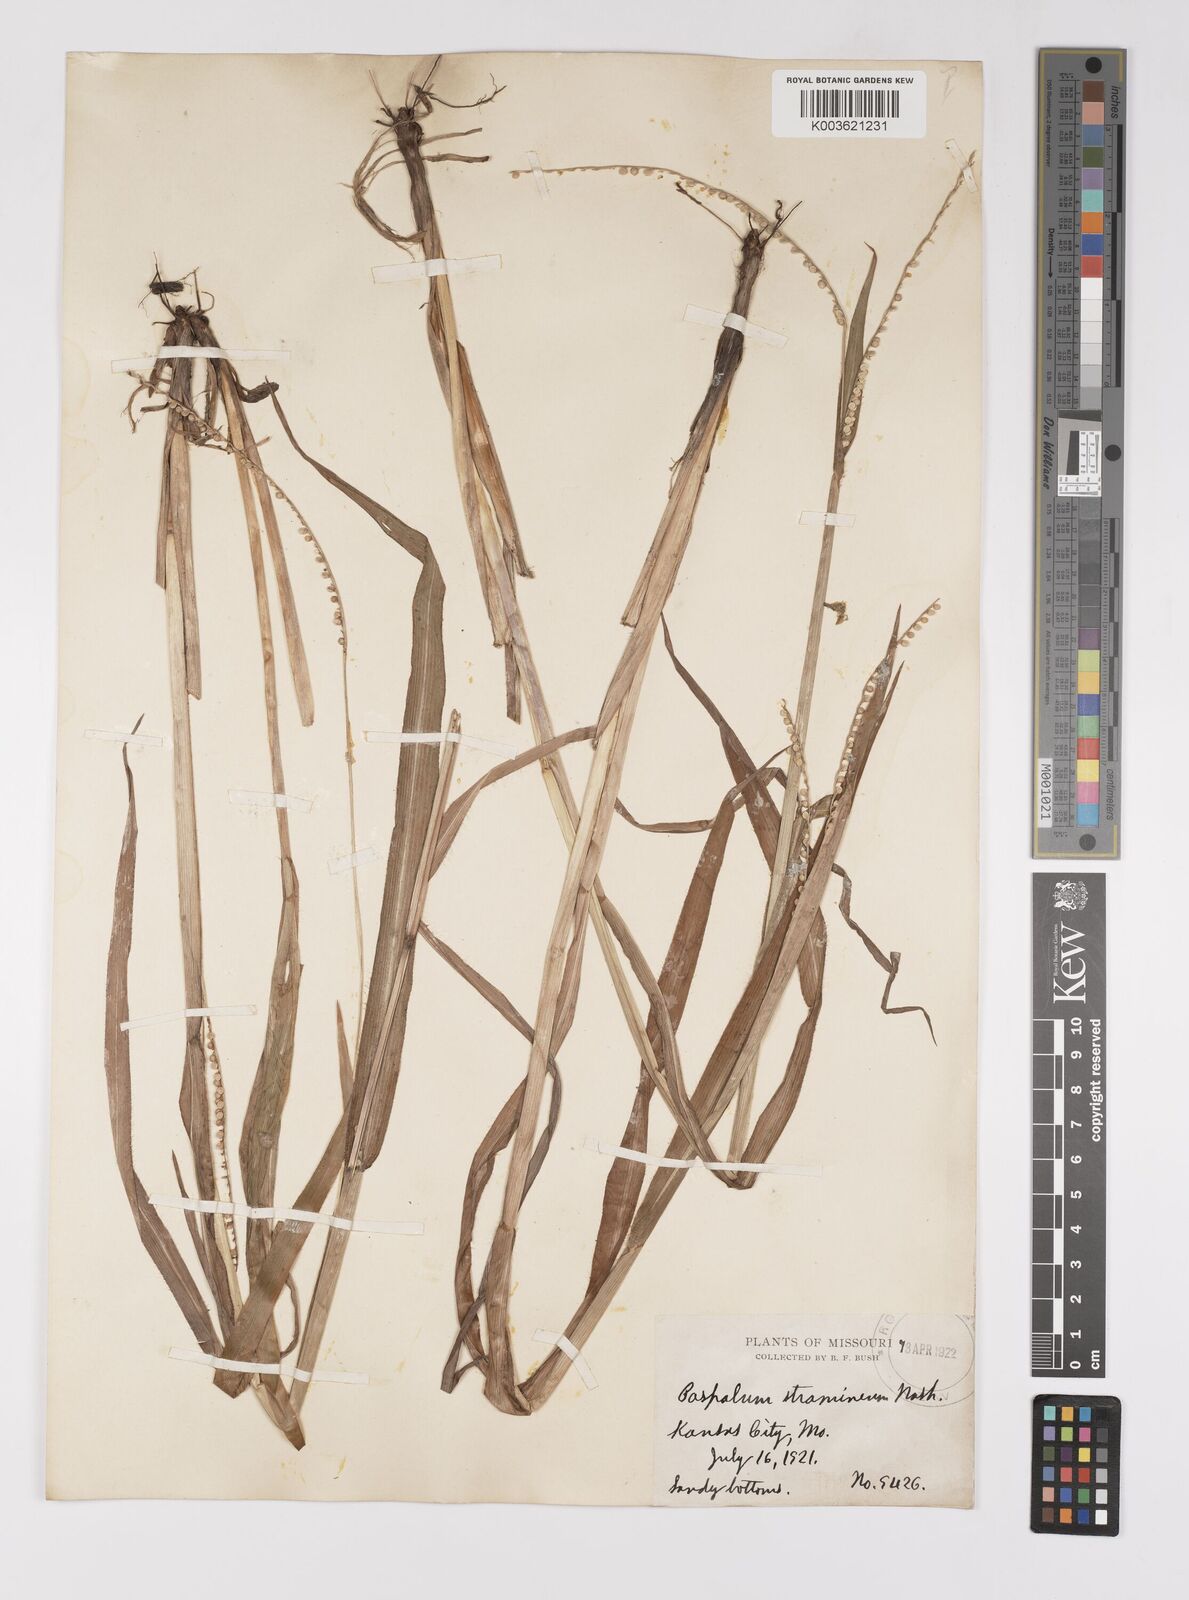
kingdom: Plantae
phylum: Tracheophyta
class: Liliopsida
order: Poales
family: Poaceae
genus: Paspalum
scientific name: Paspalum setaceum
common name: Slender paspalum
